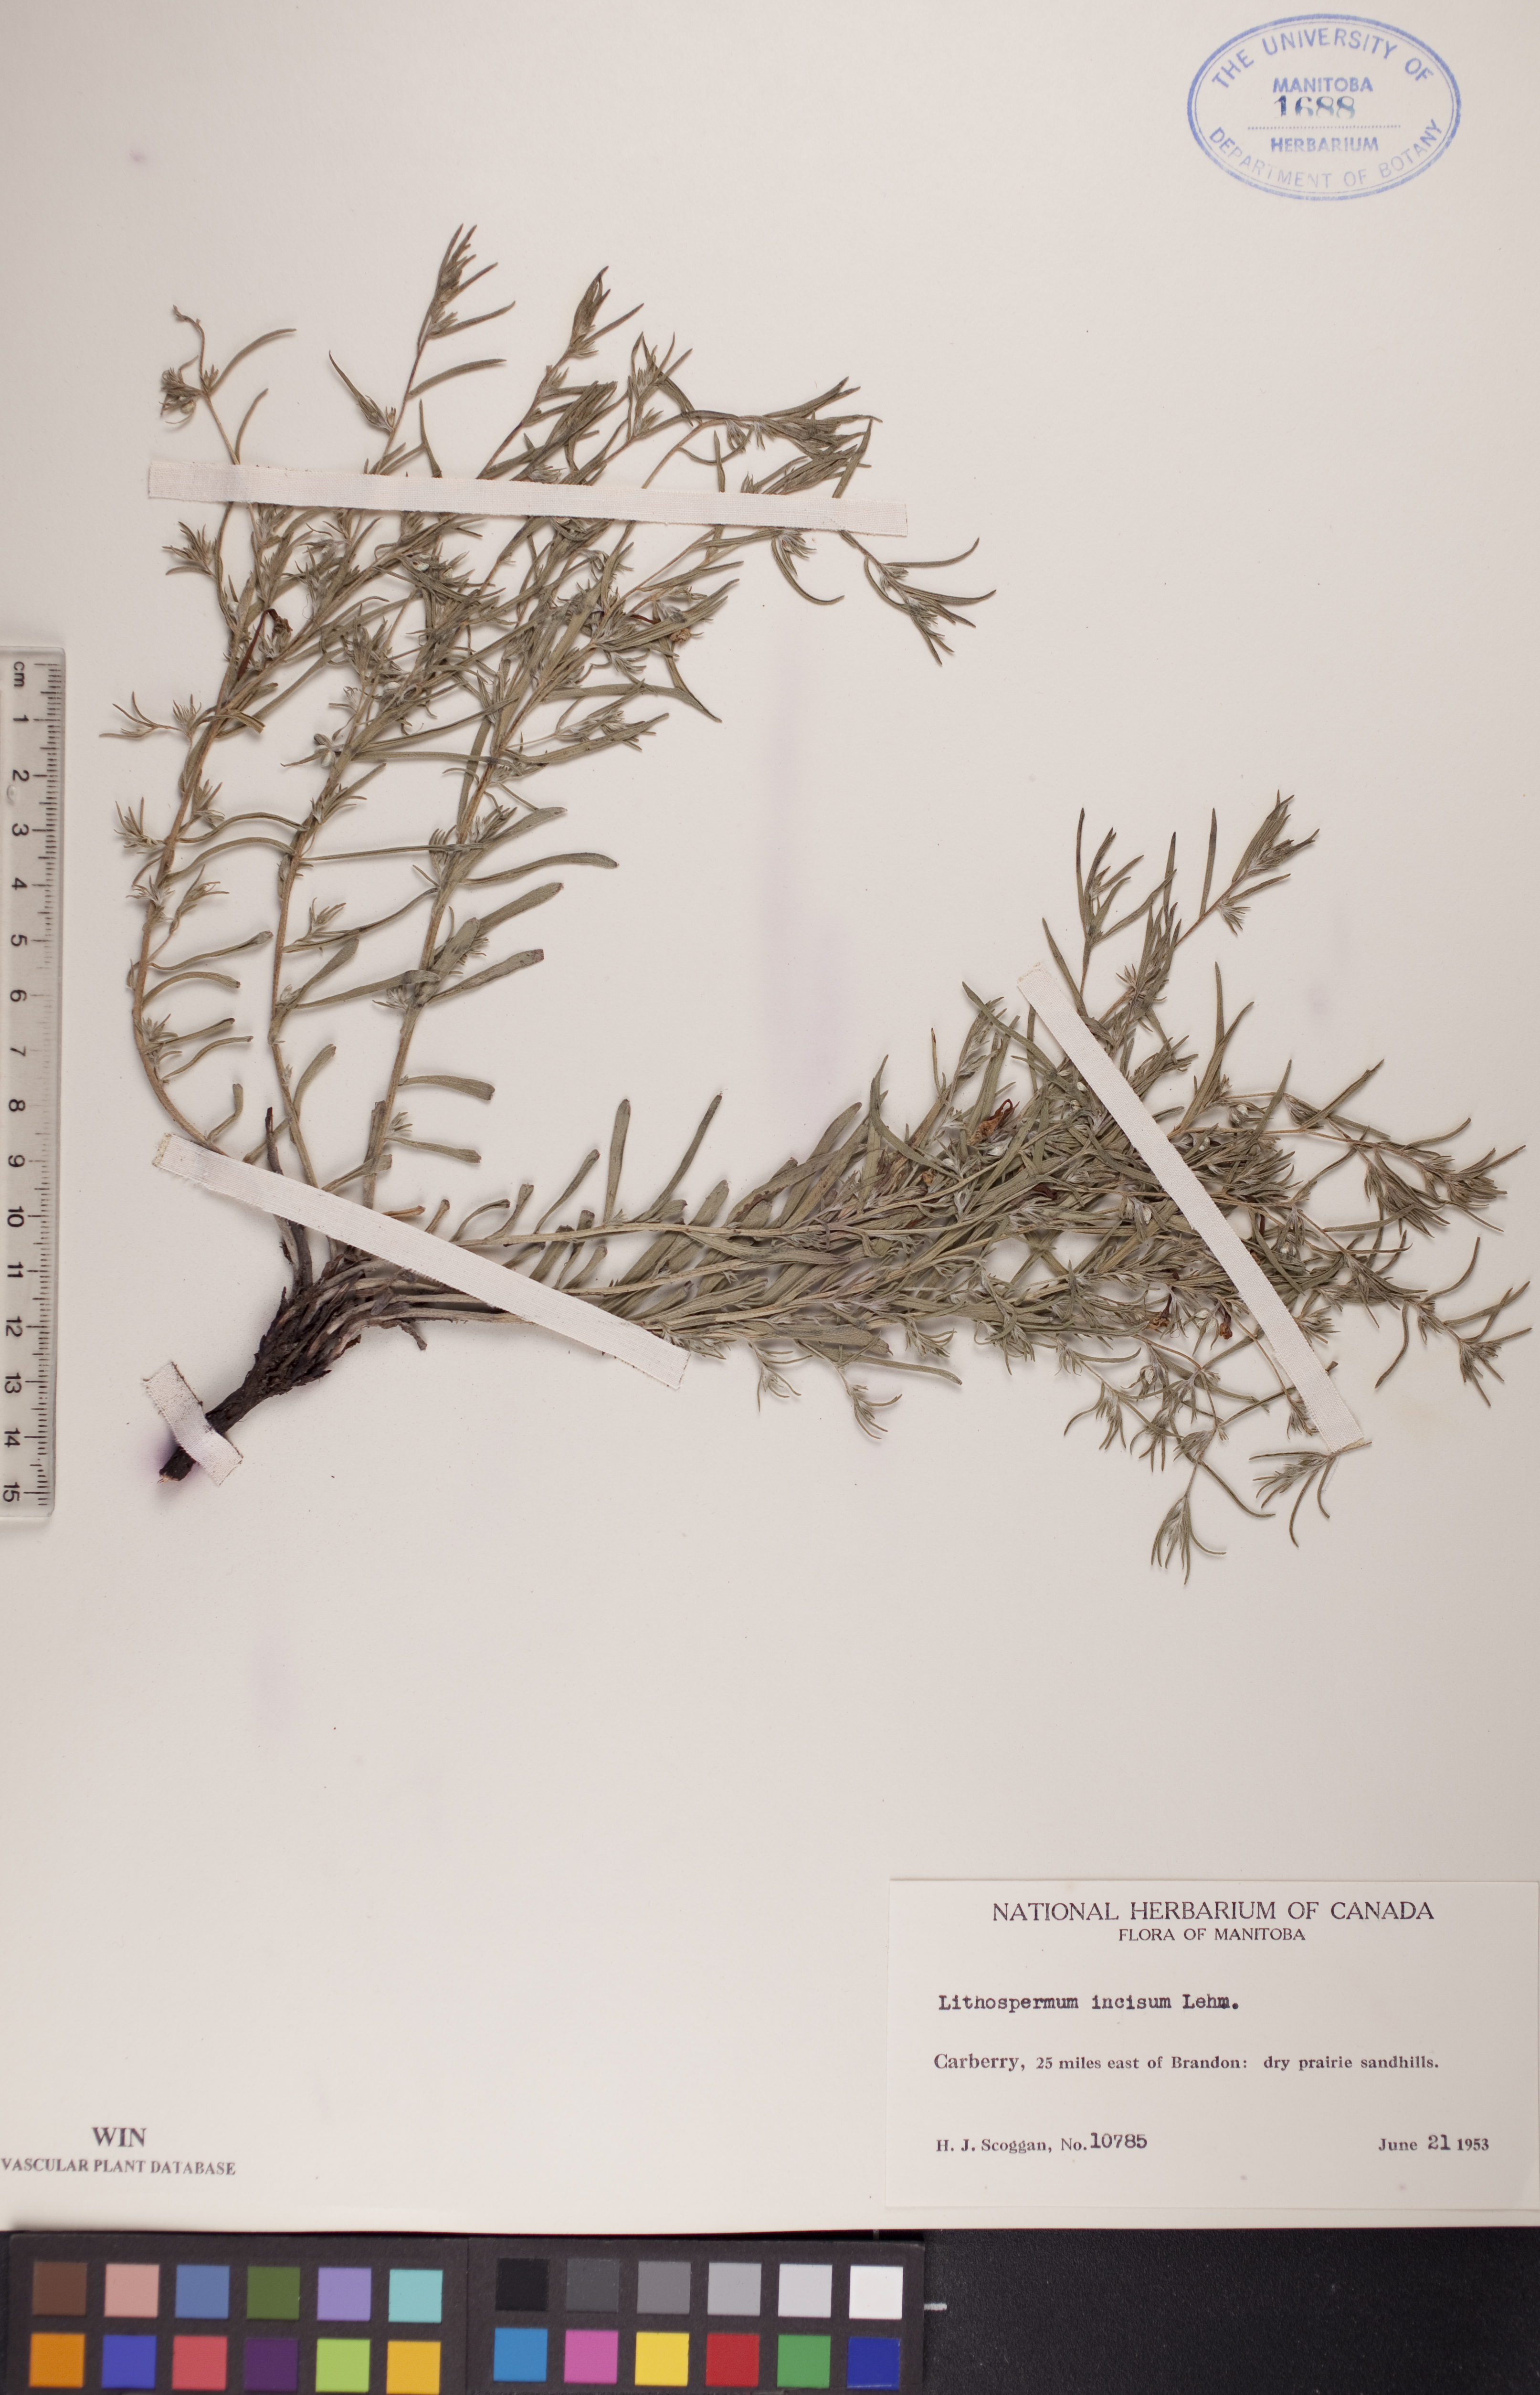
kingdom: Plantae
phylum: Tracheophyta
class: Magnoliopsida
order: Boraginales
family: Boraginaceae
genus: Lithospermum
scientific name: Lithospermum incisum
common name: Fringed gromwell
